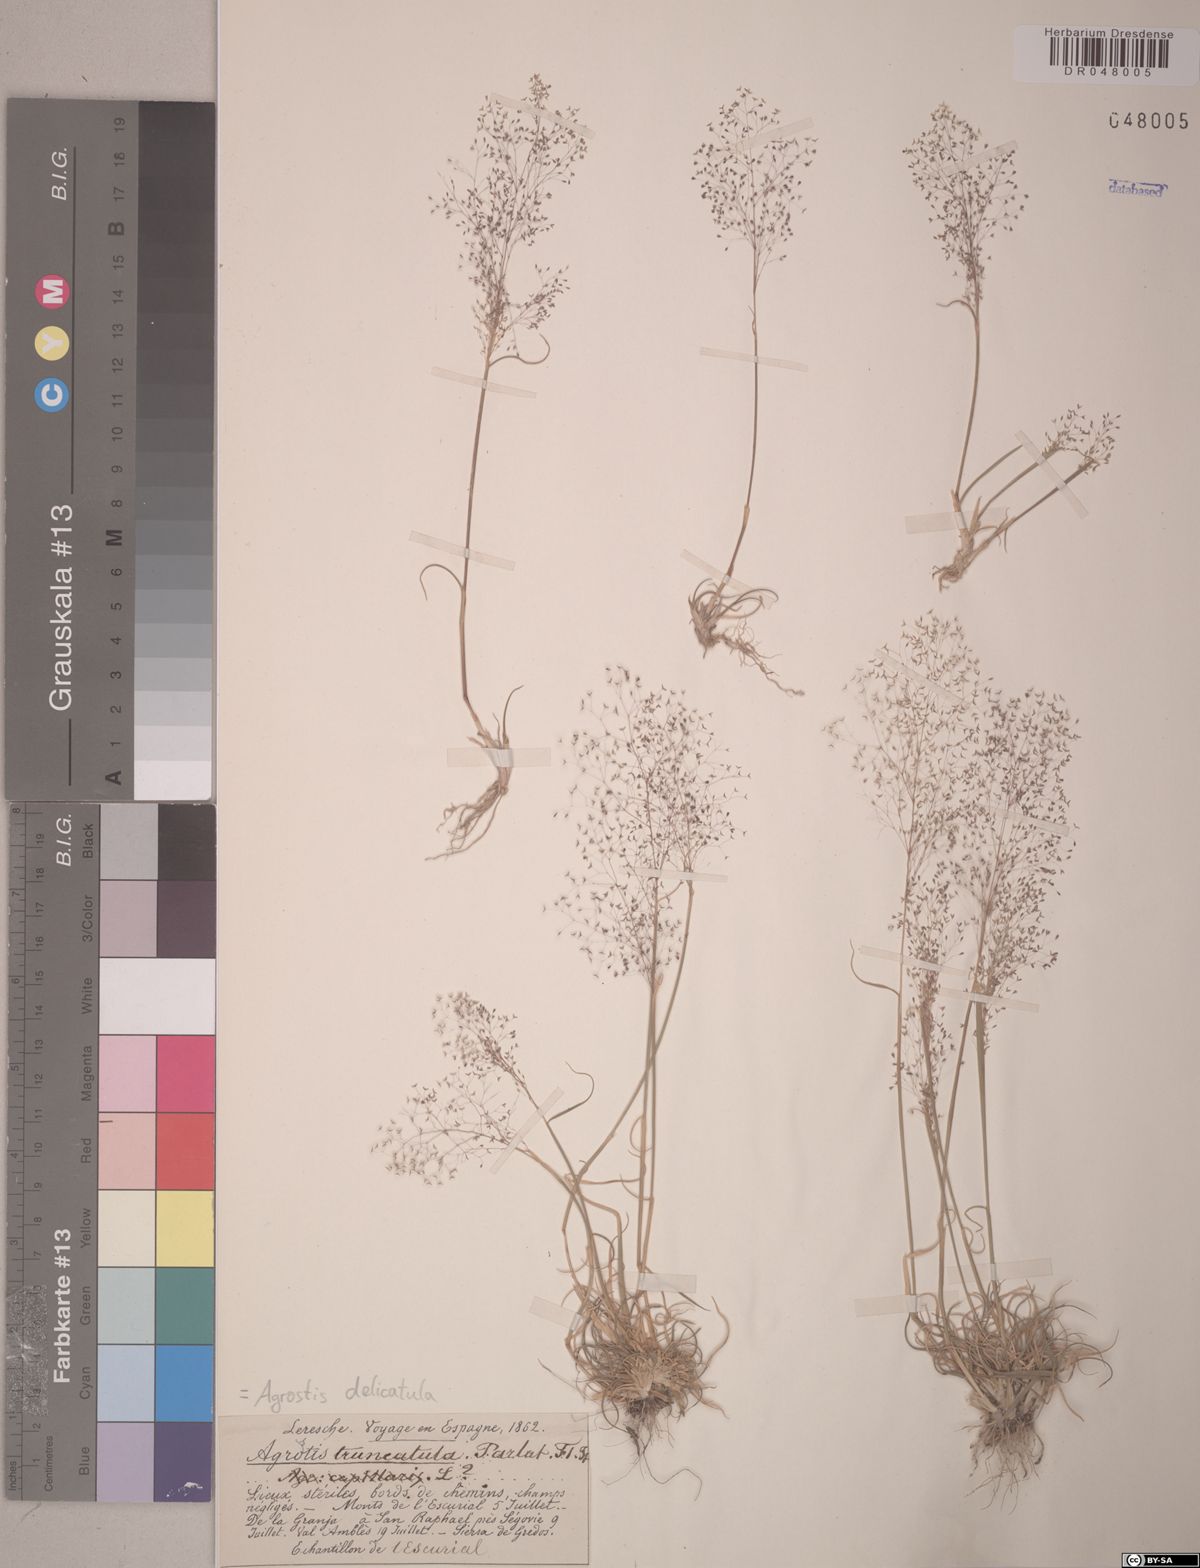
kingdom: Plantae
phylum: Tracheophyta
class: Liliopsida
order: Poales
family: Poaceae
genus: Agrostis
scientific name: Agrostis castellana
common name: Highland bent
